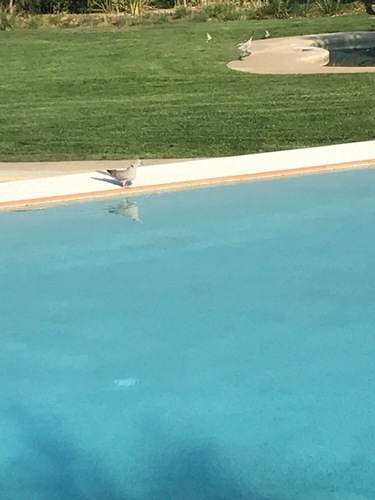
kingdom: Animalia
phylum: Chordata
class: Aves
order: Columbiformes
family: Columbidae
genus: Streptopelia
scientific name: Streptopelia decaocto
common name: Eurasian collared dove
